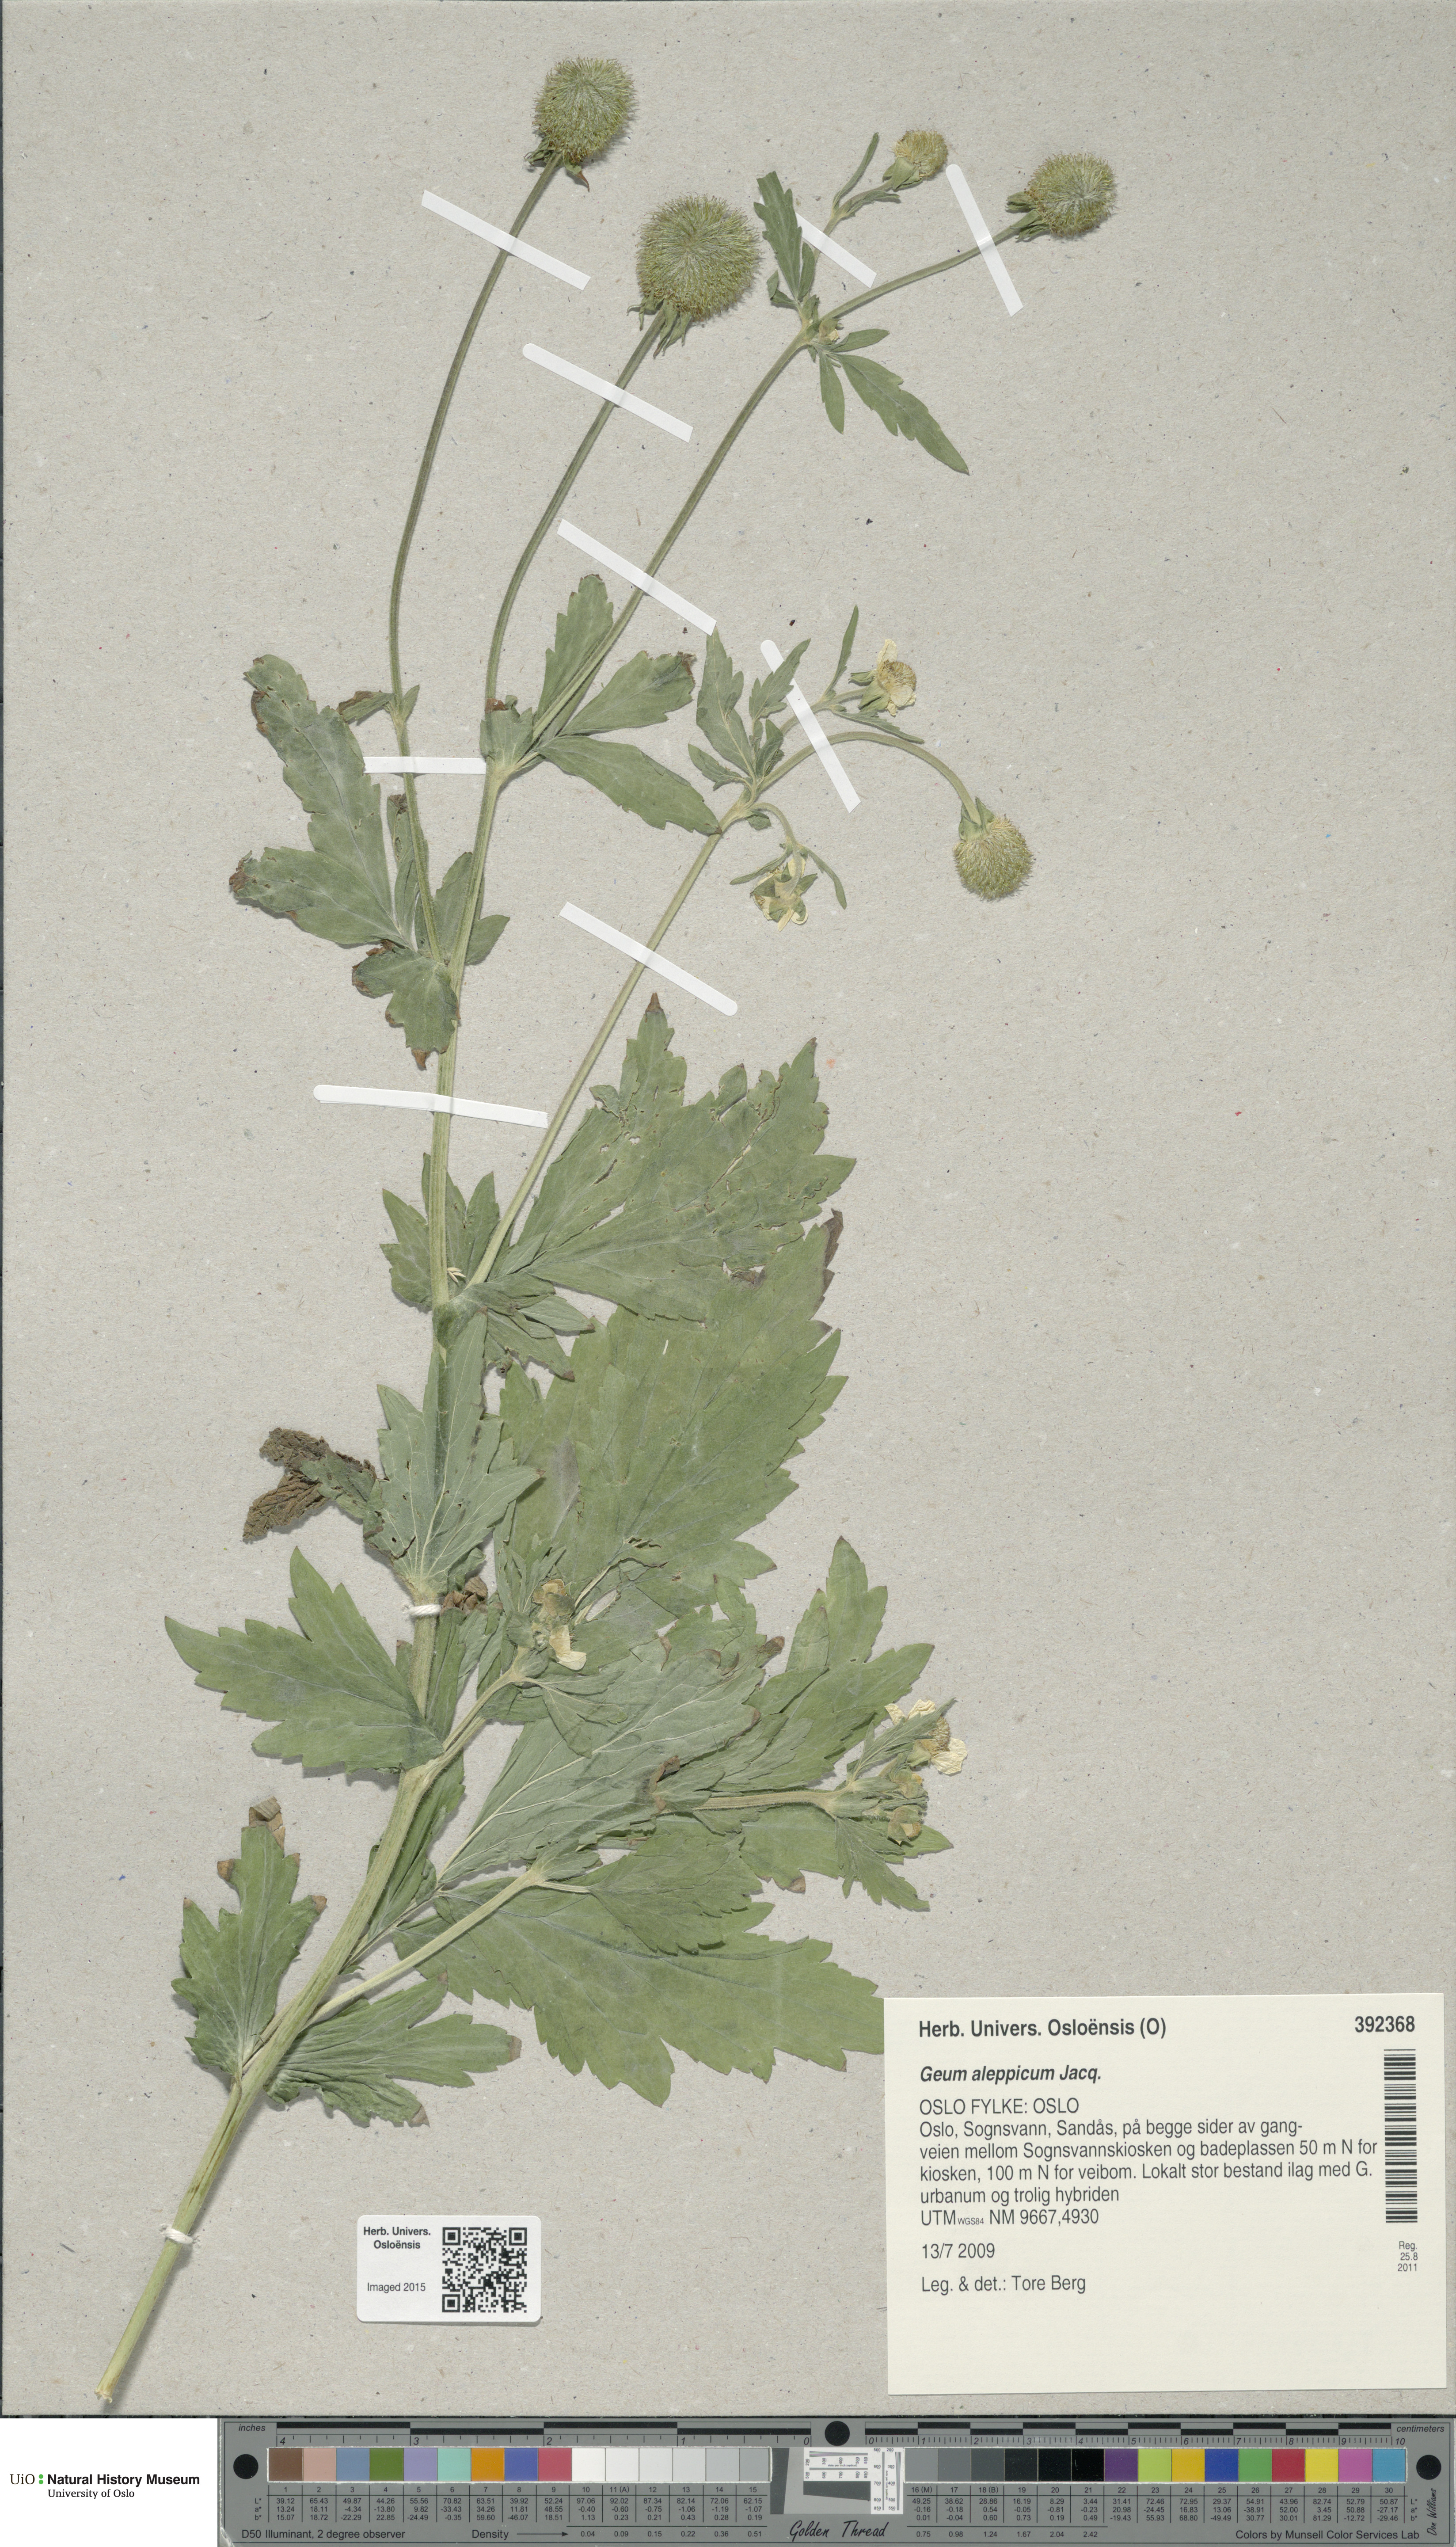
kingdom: Plantae
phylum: Tracheophyta
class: Magnoliopsida
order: Rosales
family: Rosaceae
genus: Geum
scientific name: Geum aleppicum
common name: Yellow avens
